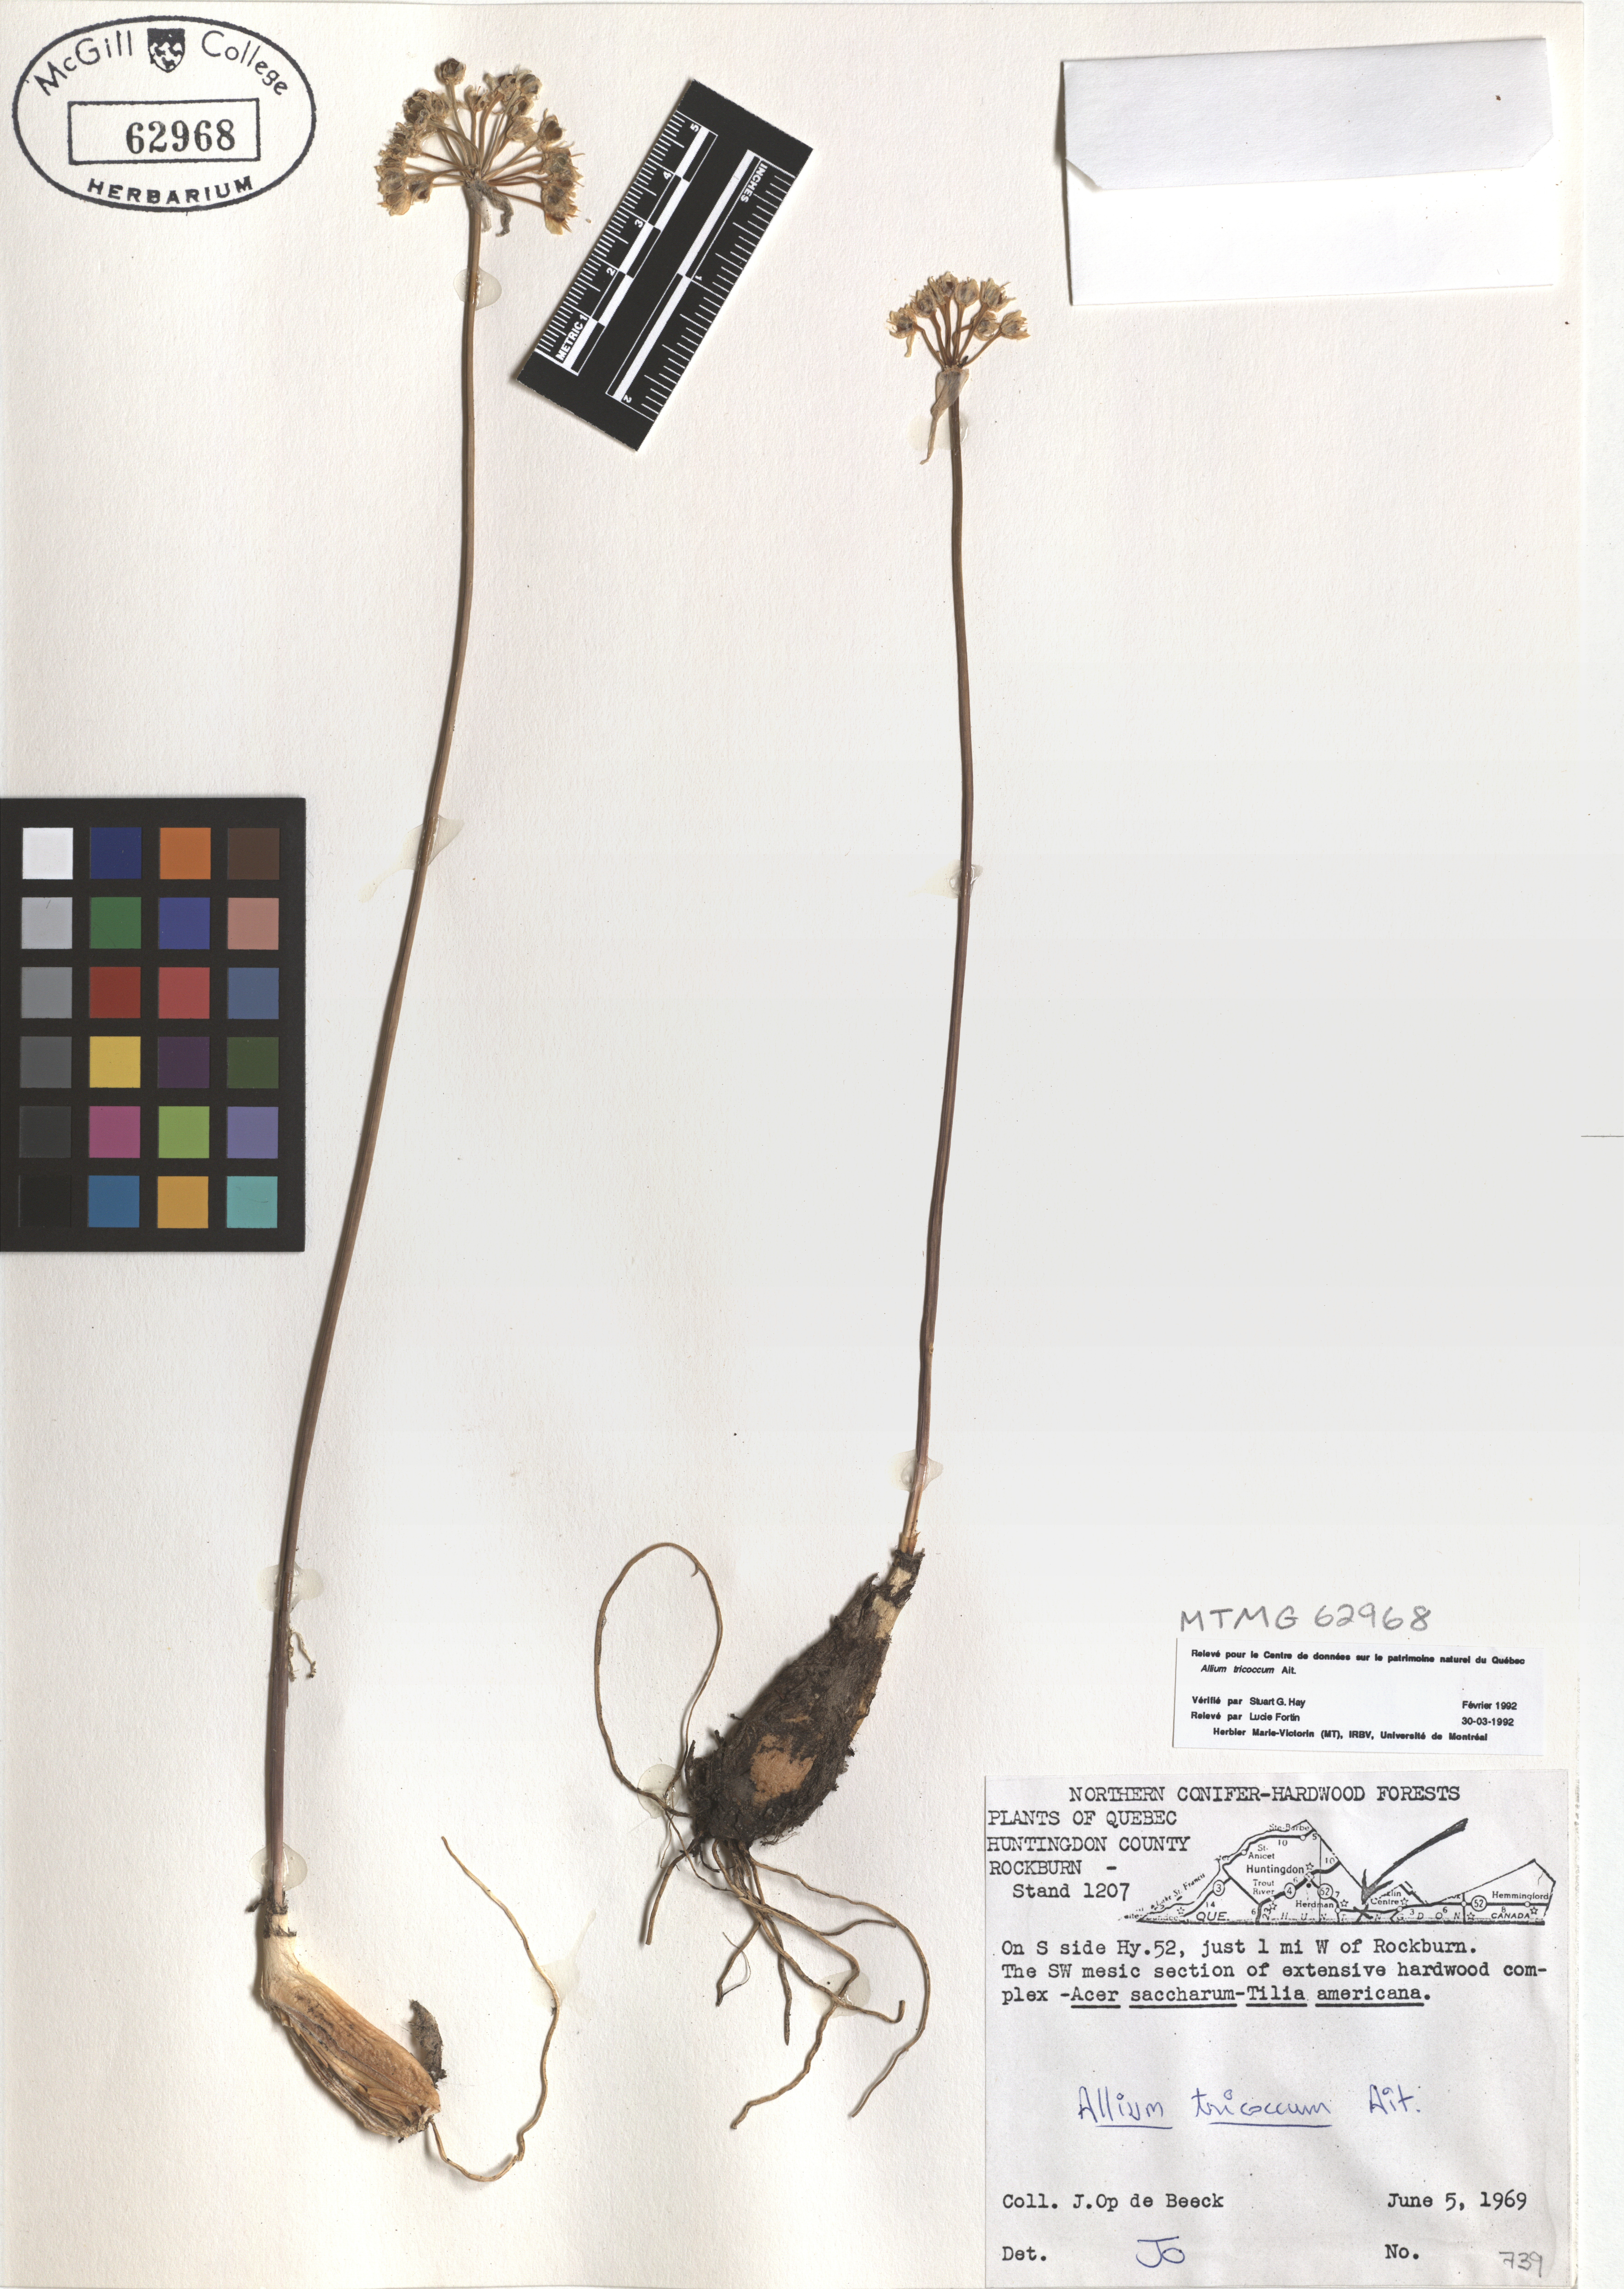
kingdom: Plantae
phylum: Tracheophyta
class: Liliopsida
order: Asparagales
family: Amaryllidaceae
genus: Allium
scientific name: Allium tricoccum
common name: Ramp
